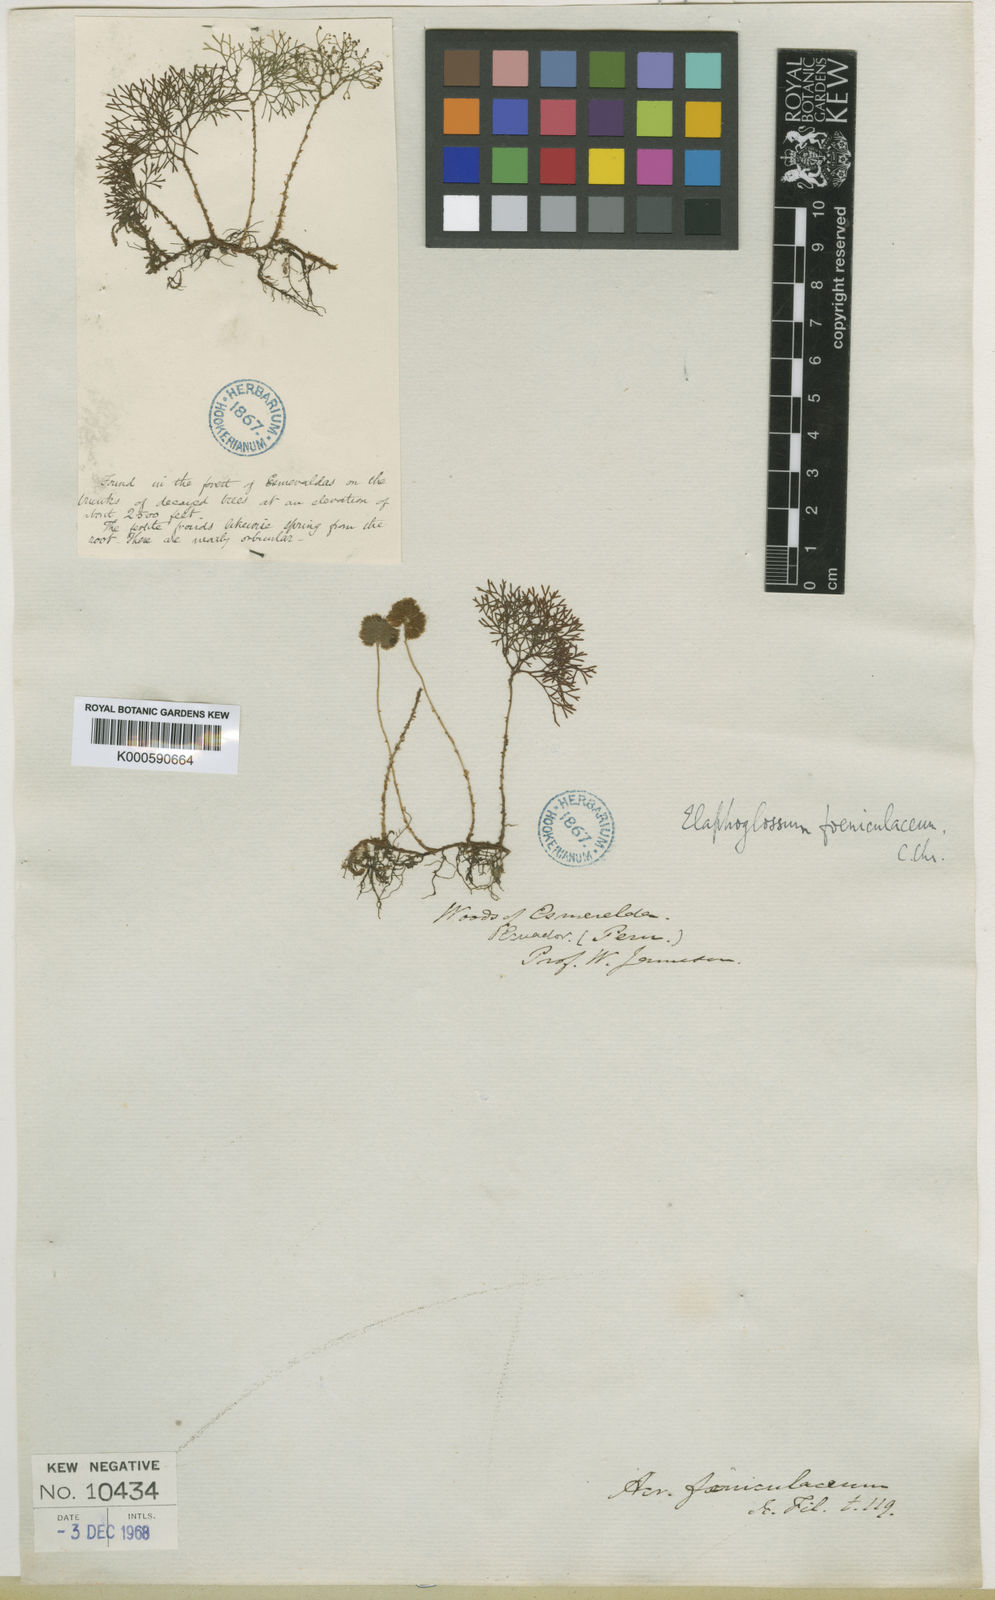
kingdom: Plantae
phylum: Tracheophyta
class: Polypodiopsida
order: Polypodiales
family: Dryopteridaceae
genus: Elaphoglossum
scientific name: Elaphoglossum peltatum
